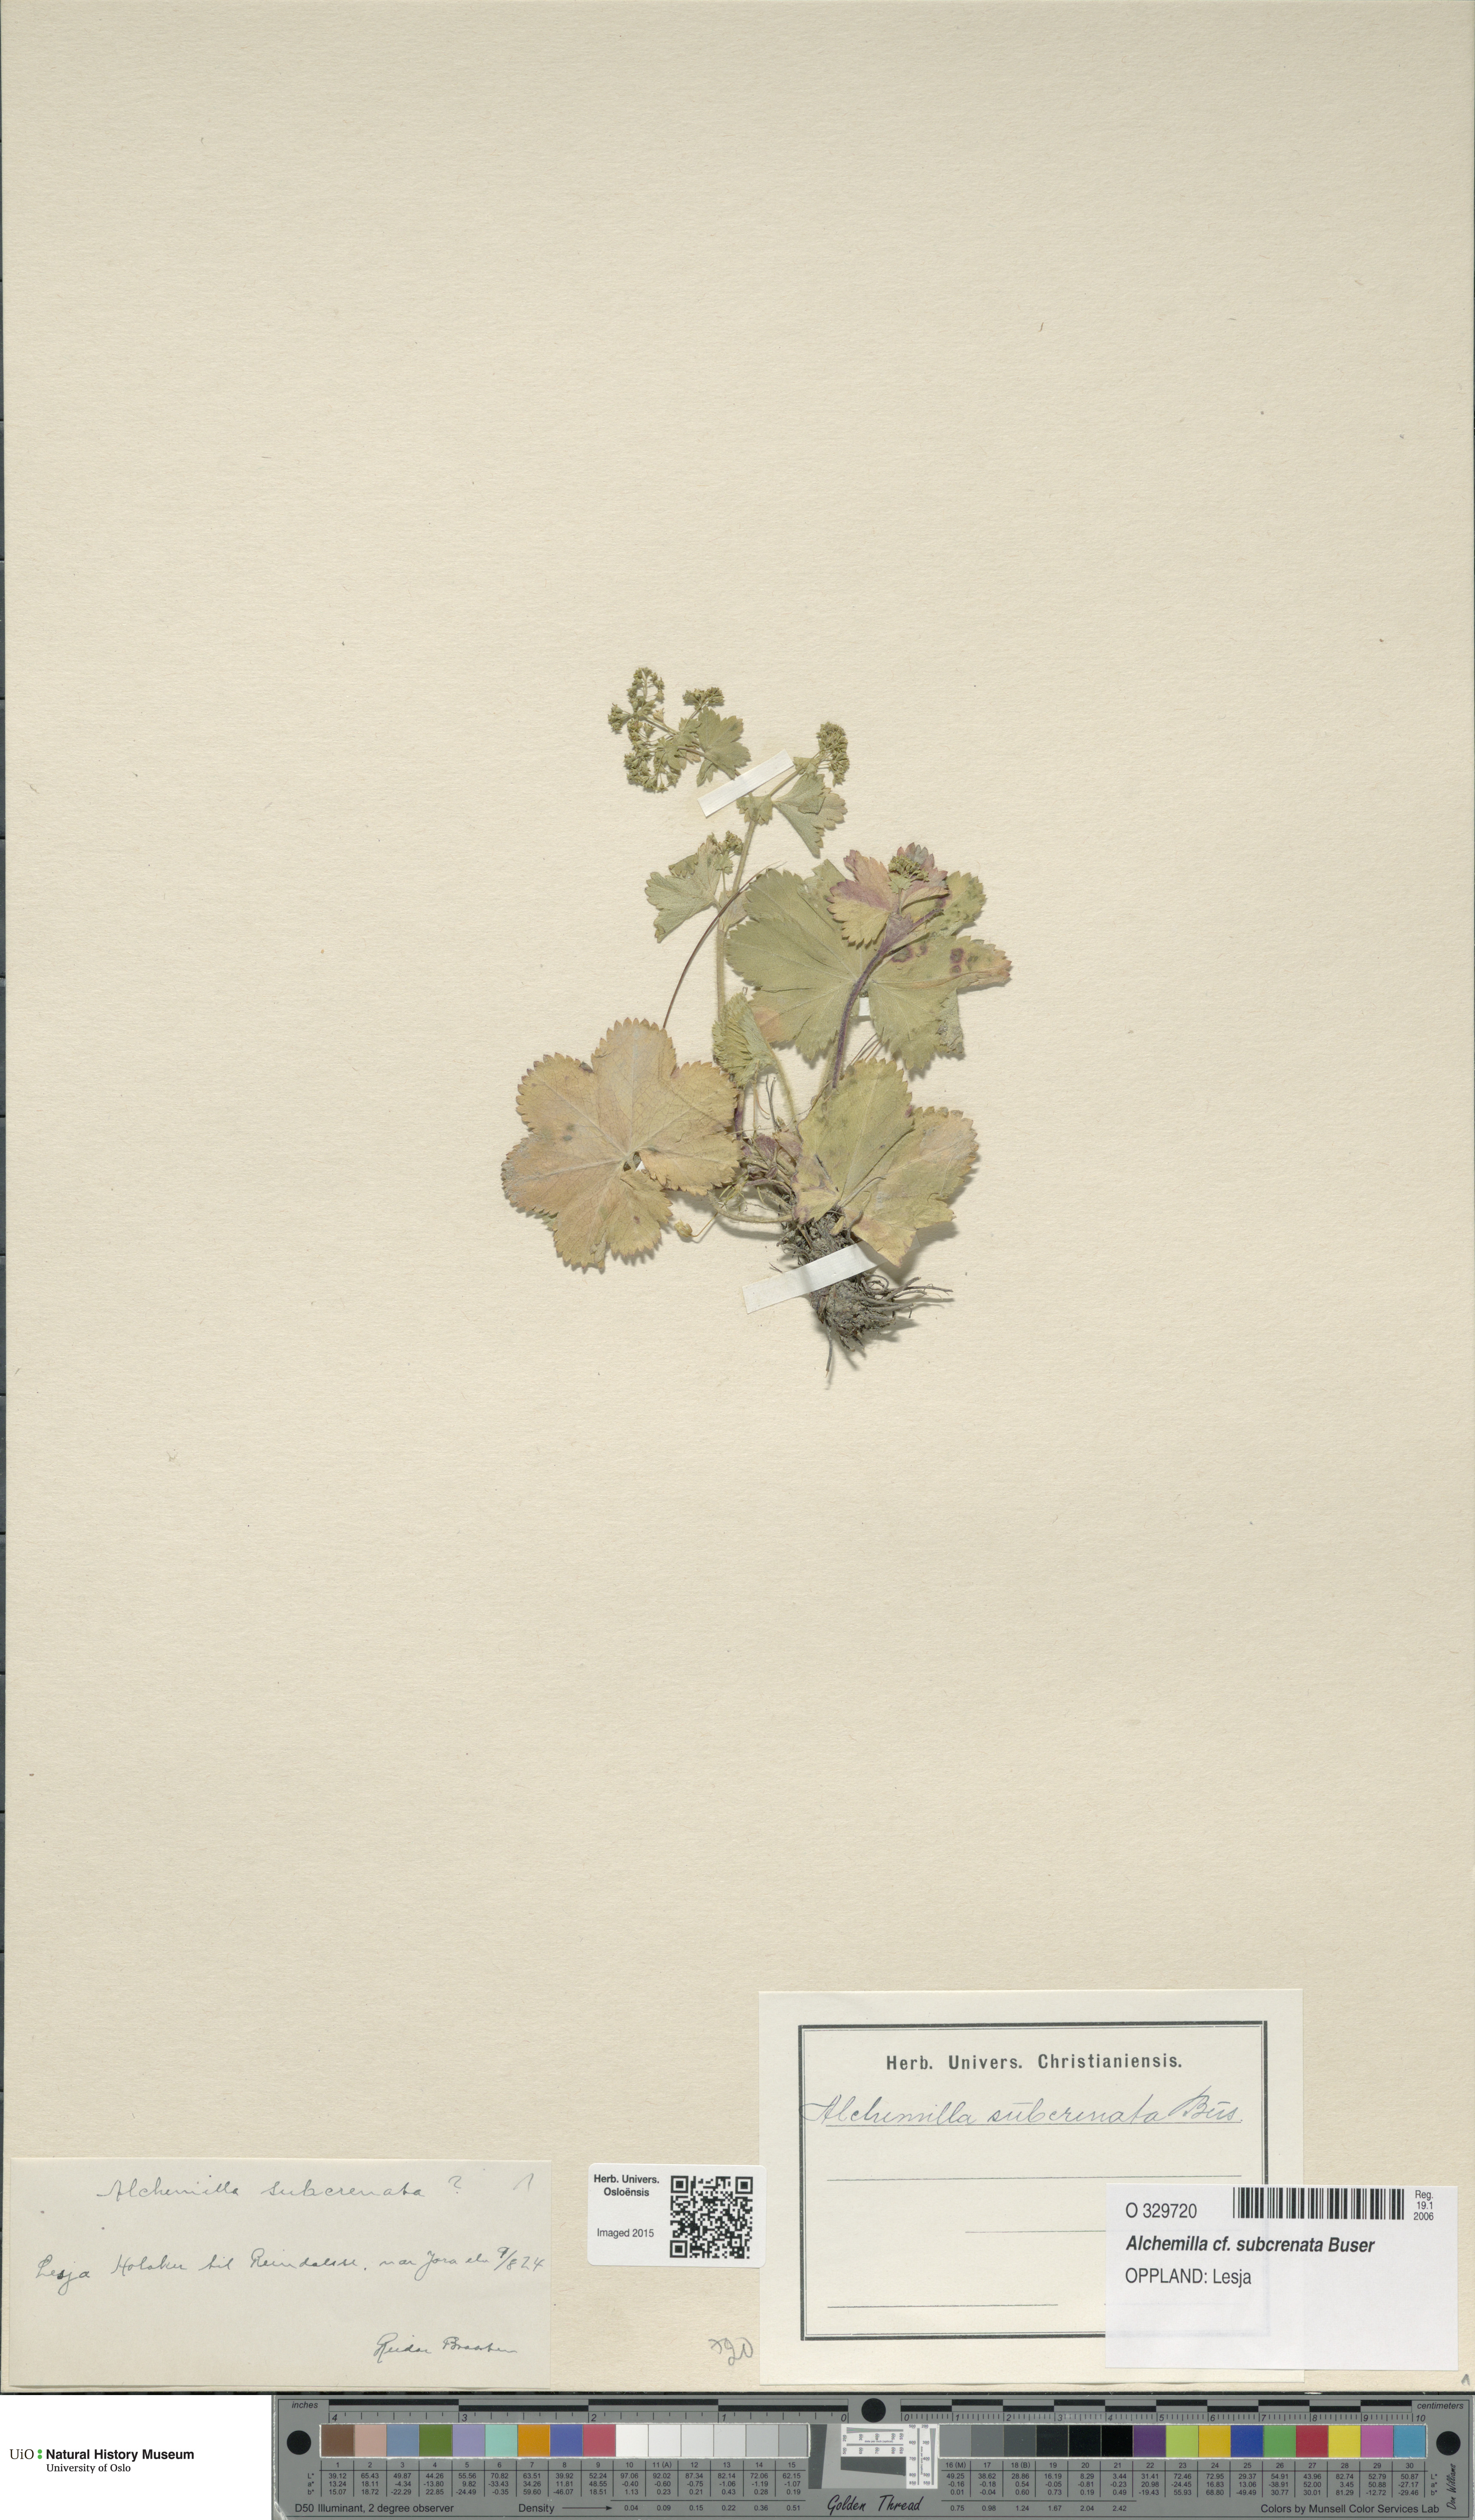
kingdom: Plantae
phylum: Tracheophyta
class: Magnoliopsida
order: Rosales
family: Rosaceae
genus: Alchemilla
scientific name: Alchemilla subcrenata
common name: Broadtooth lady's mantle
